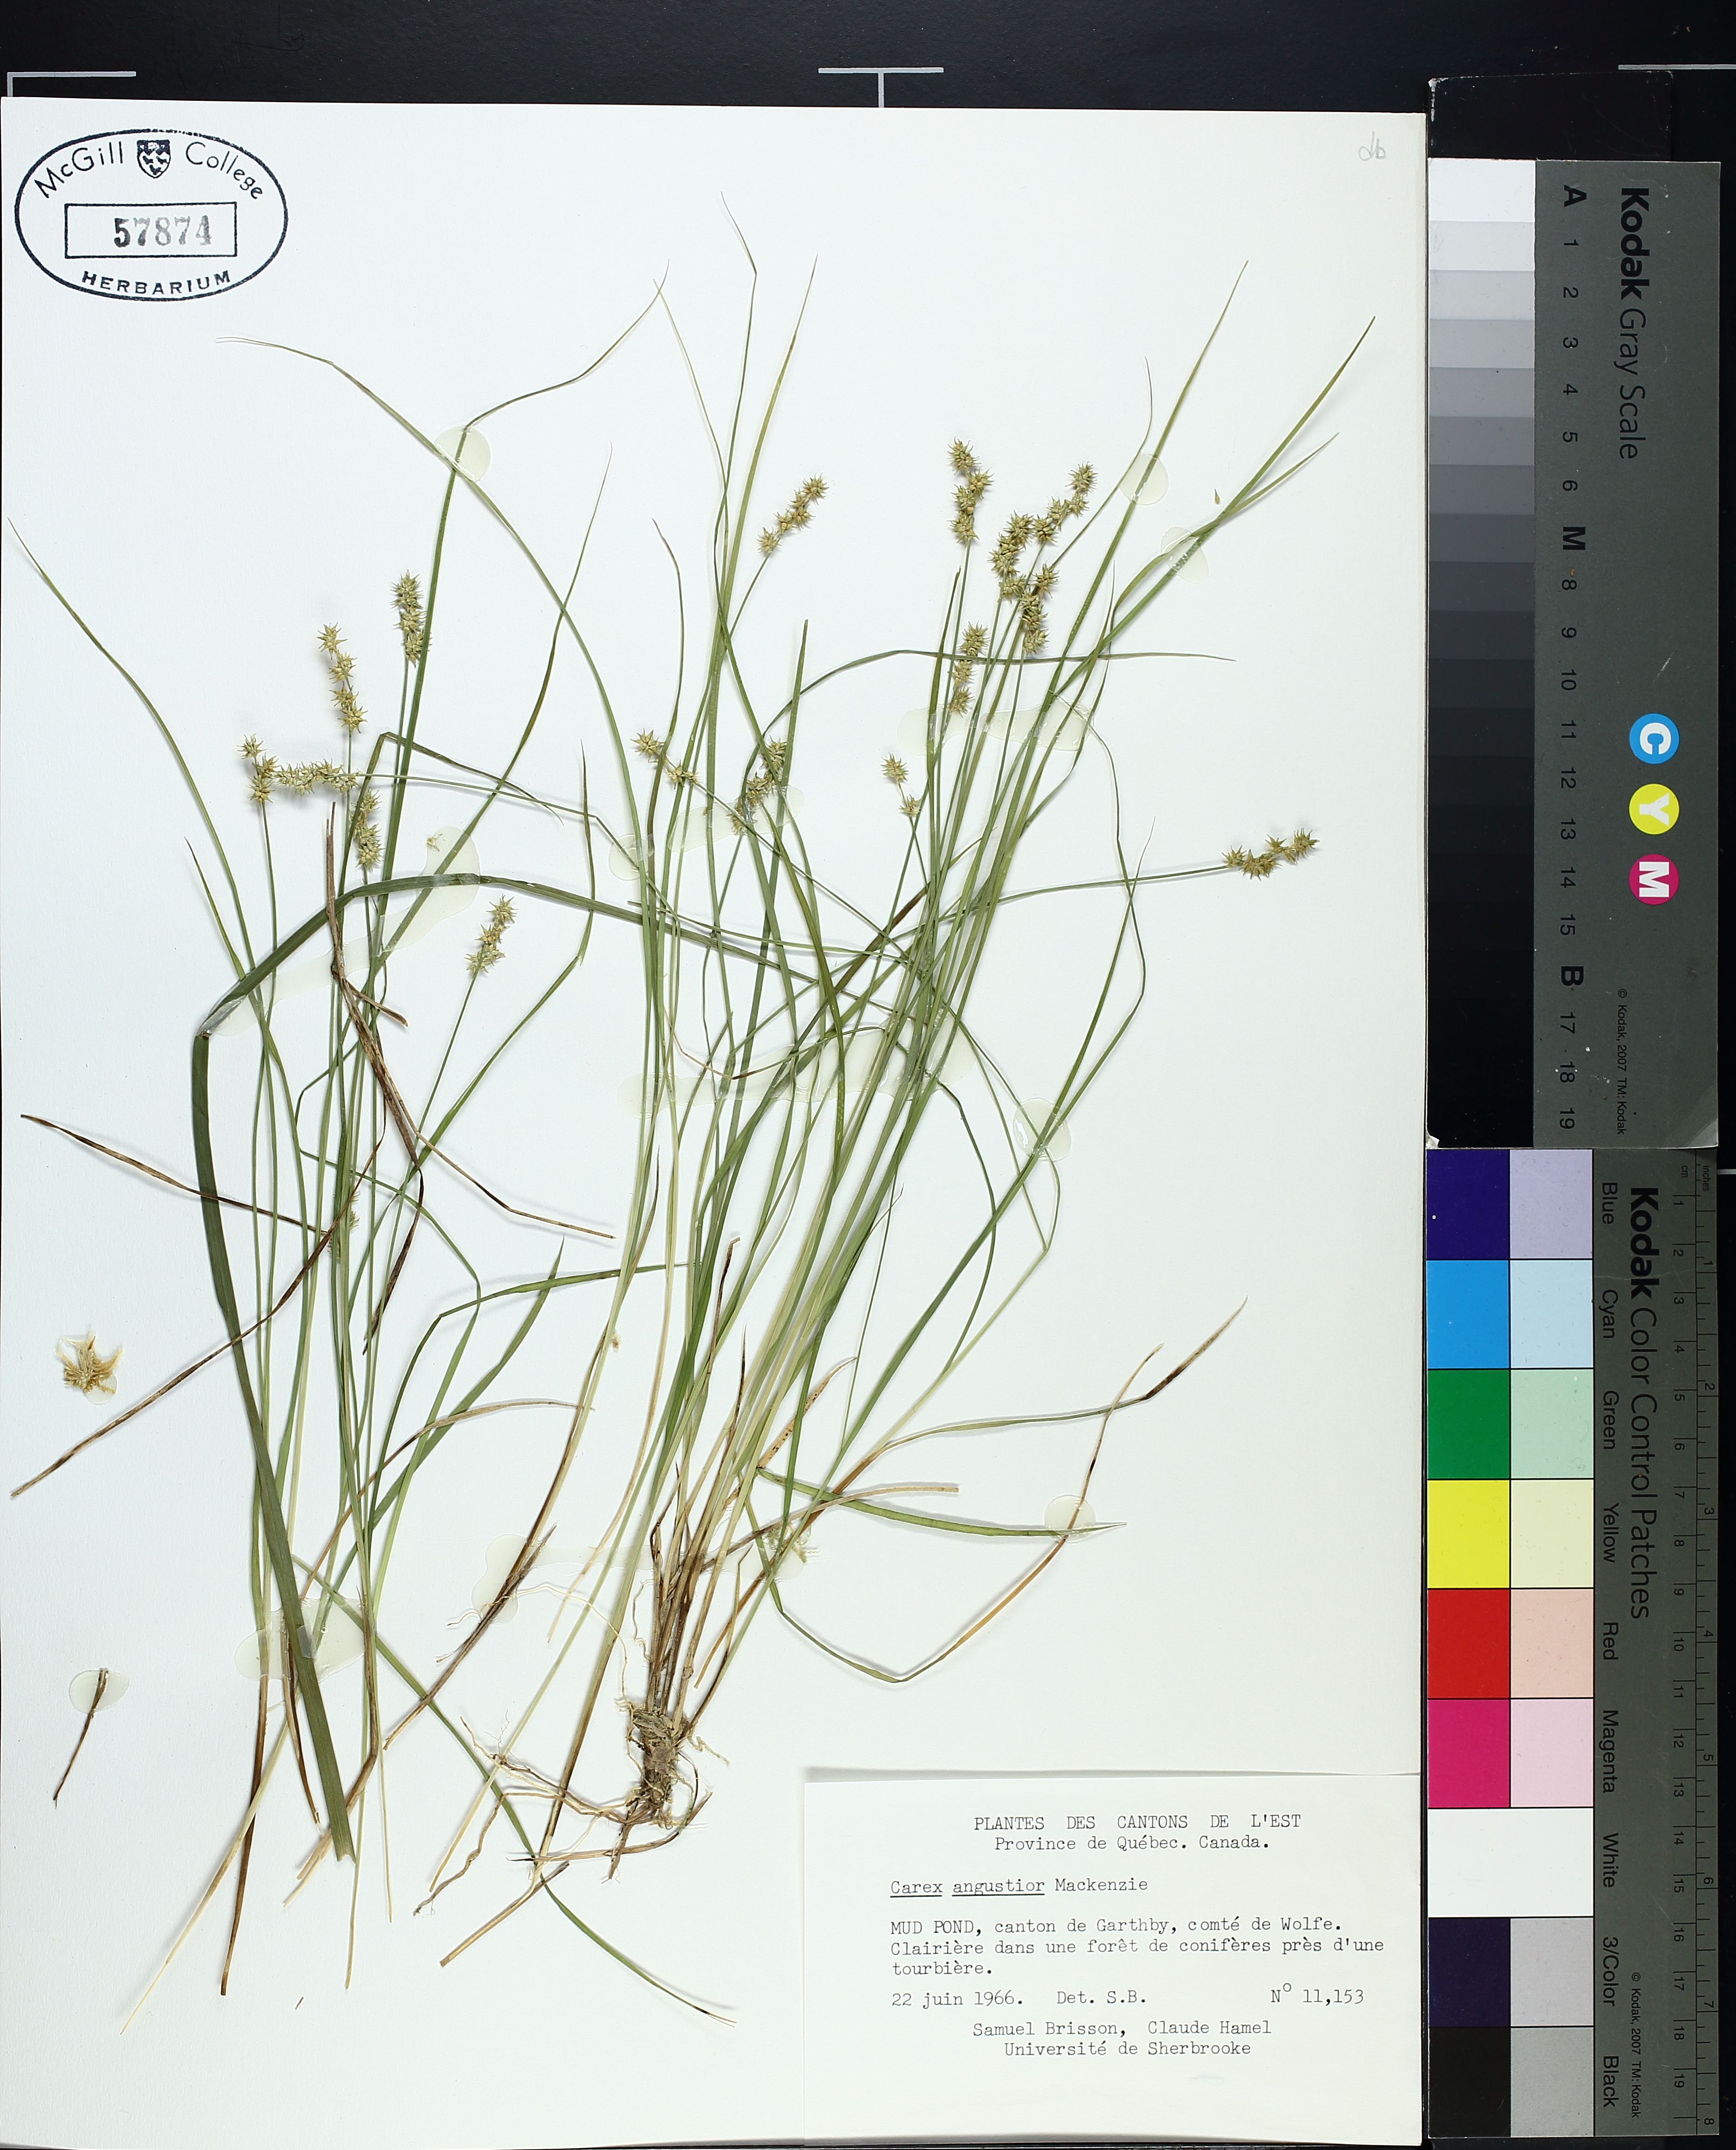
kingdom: Plantae
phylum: Tracheophyta
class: Liliopsida
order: Poales
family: Cyperaceae
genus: Carex
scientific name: Carex echinata
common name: Star sedge
